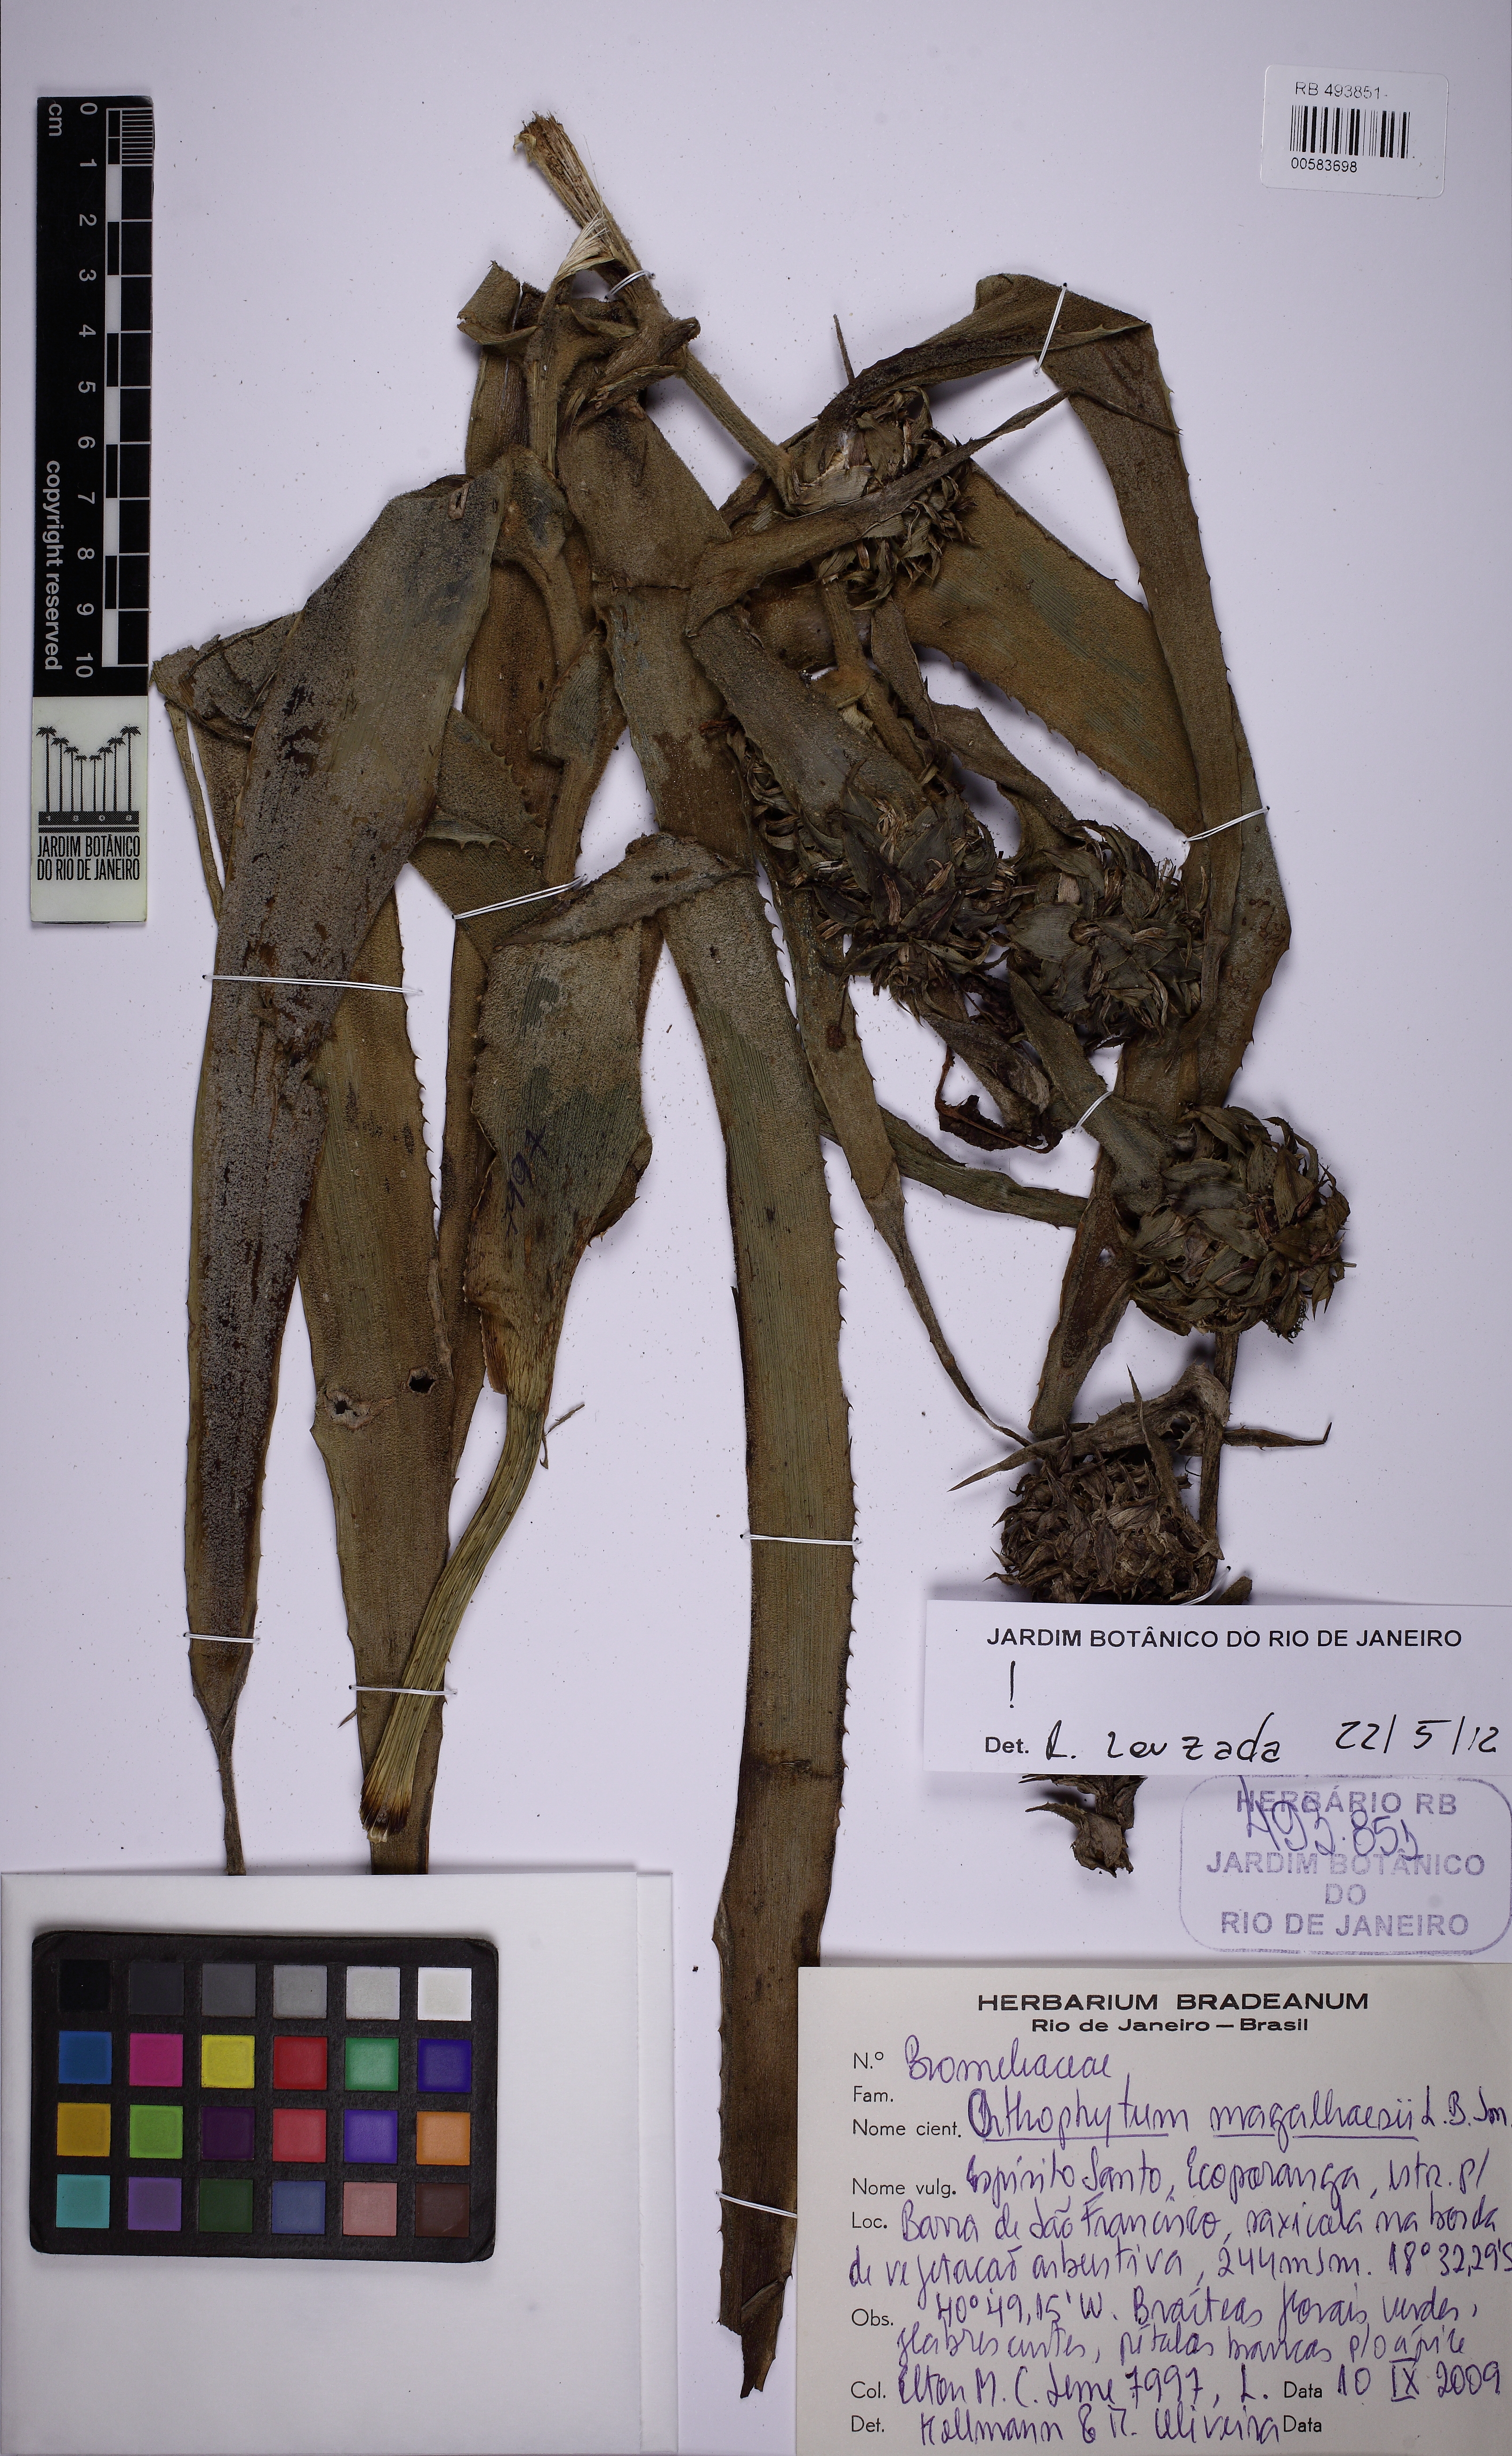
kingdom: Plantae
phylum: Tracheophyta
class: Liliopsida
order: Poales
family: Bromeliaceae
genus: Orthophytum
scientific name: Orthophytum magalhaesii
